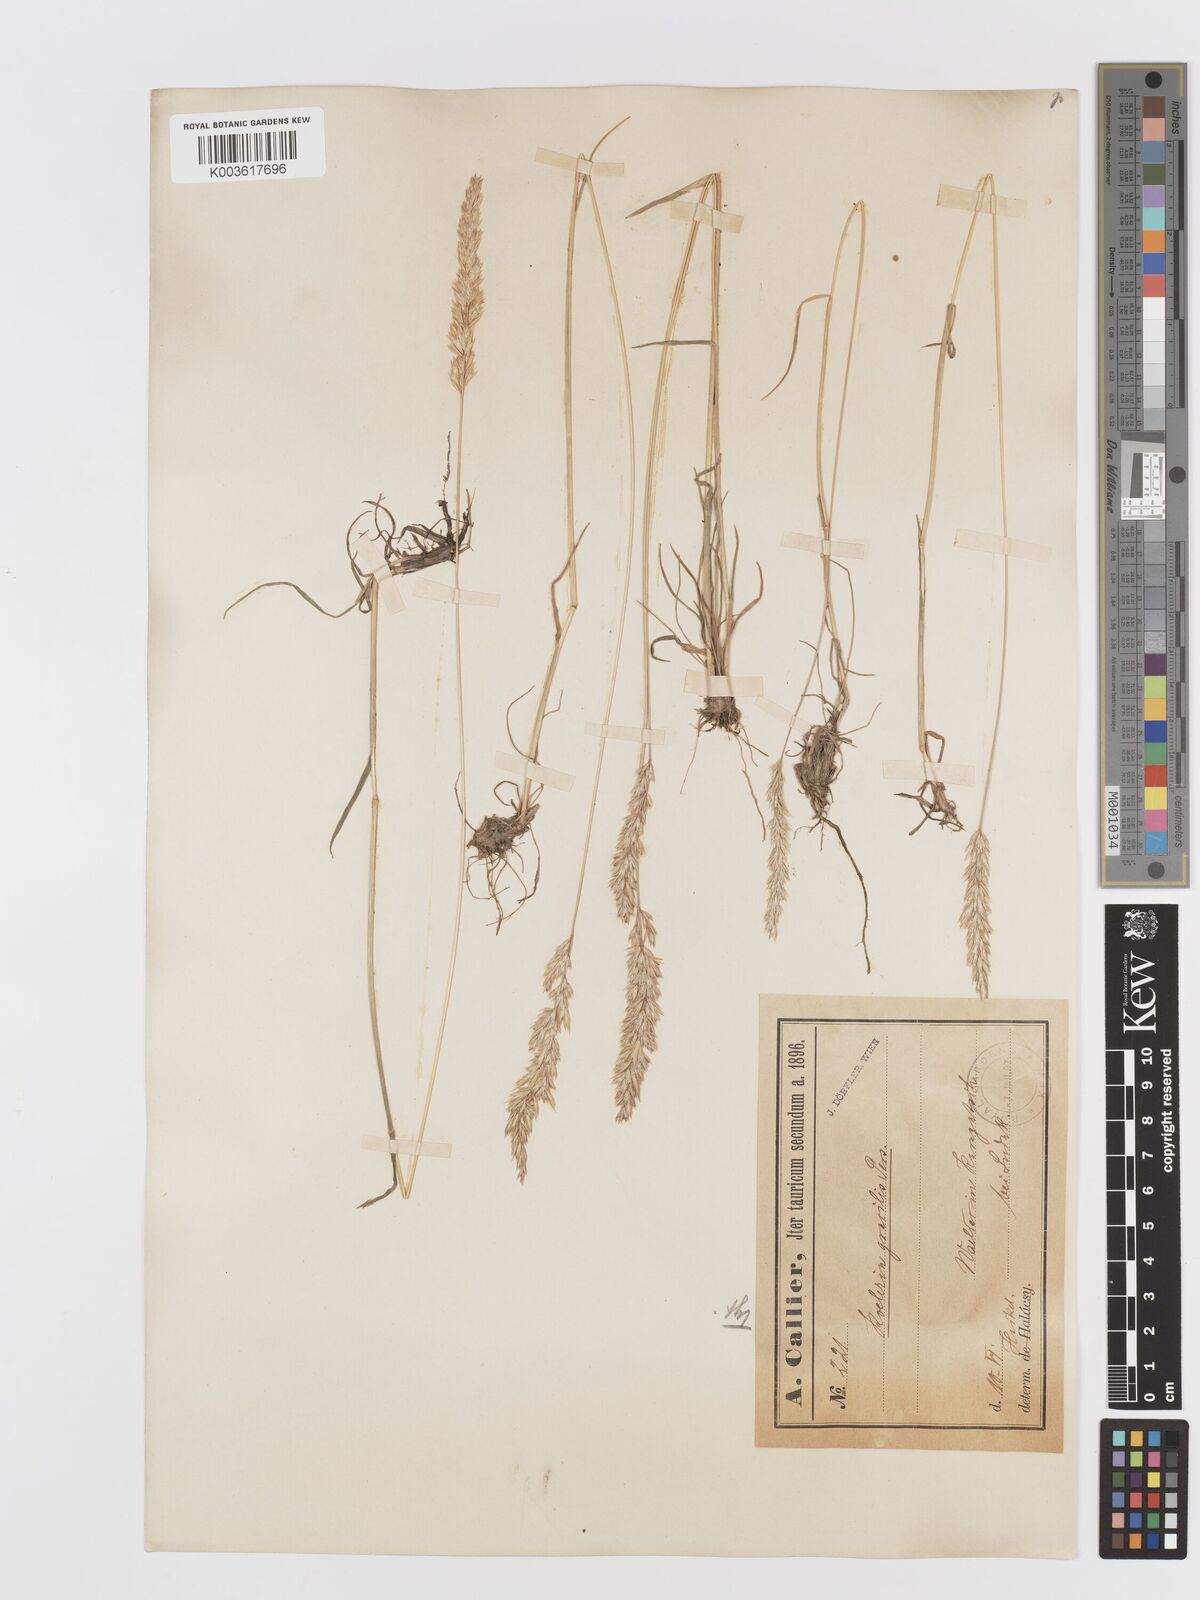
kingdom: Plantae
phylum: Tracheophyta
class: Liliopsida
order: Poales
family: Poaceae
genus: Koeleria
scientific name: Koeleria pyramidata
